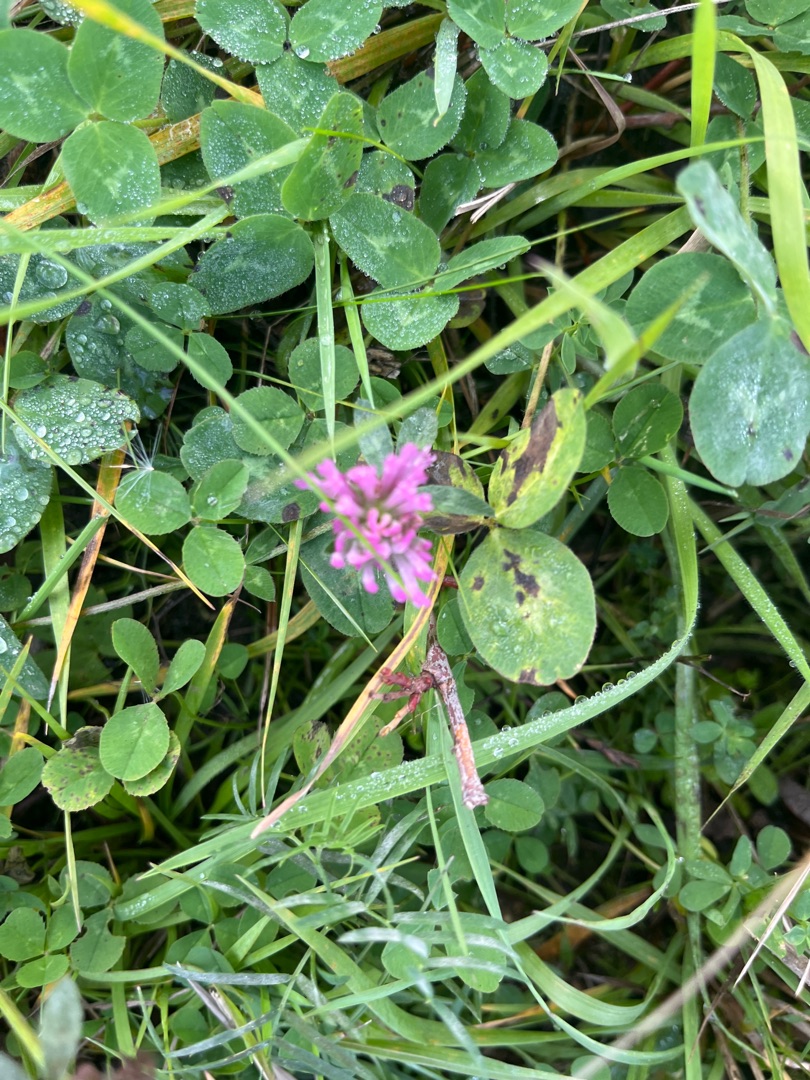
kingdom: Plantae
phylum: Tracheophyta
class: Magnoliopsida
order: Fabales
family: Fabaceae
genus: Trifolium
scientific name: Trifolium pratense
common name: Rød-kløver
